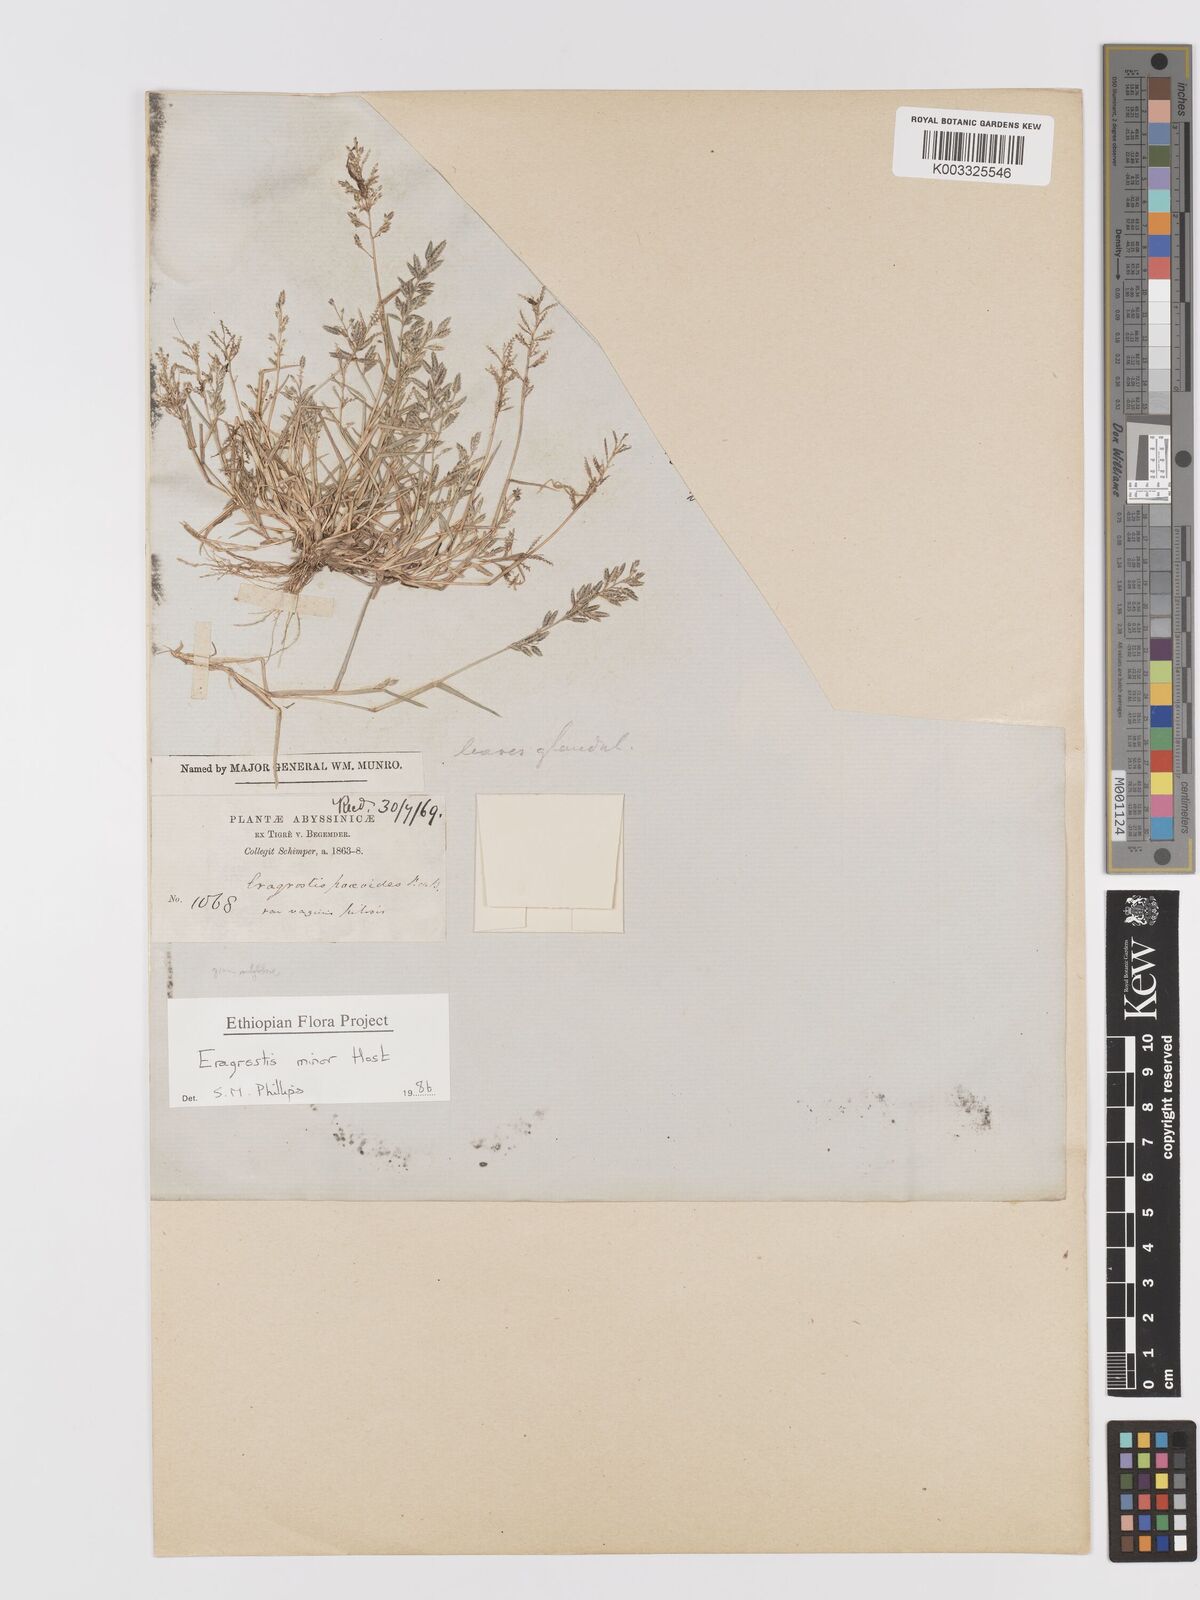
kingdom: Plantae
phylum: Tracheophyta
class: Liliopsida
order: Poales
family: Poaceae
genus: Eragrostis
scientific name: Eragrostis minor
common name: Small love-grass
